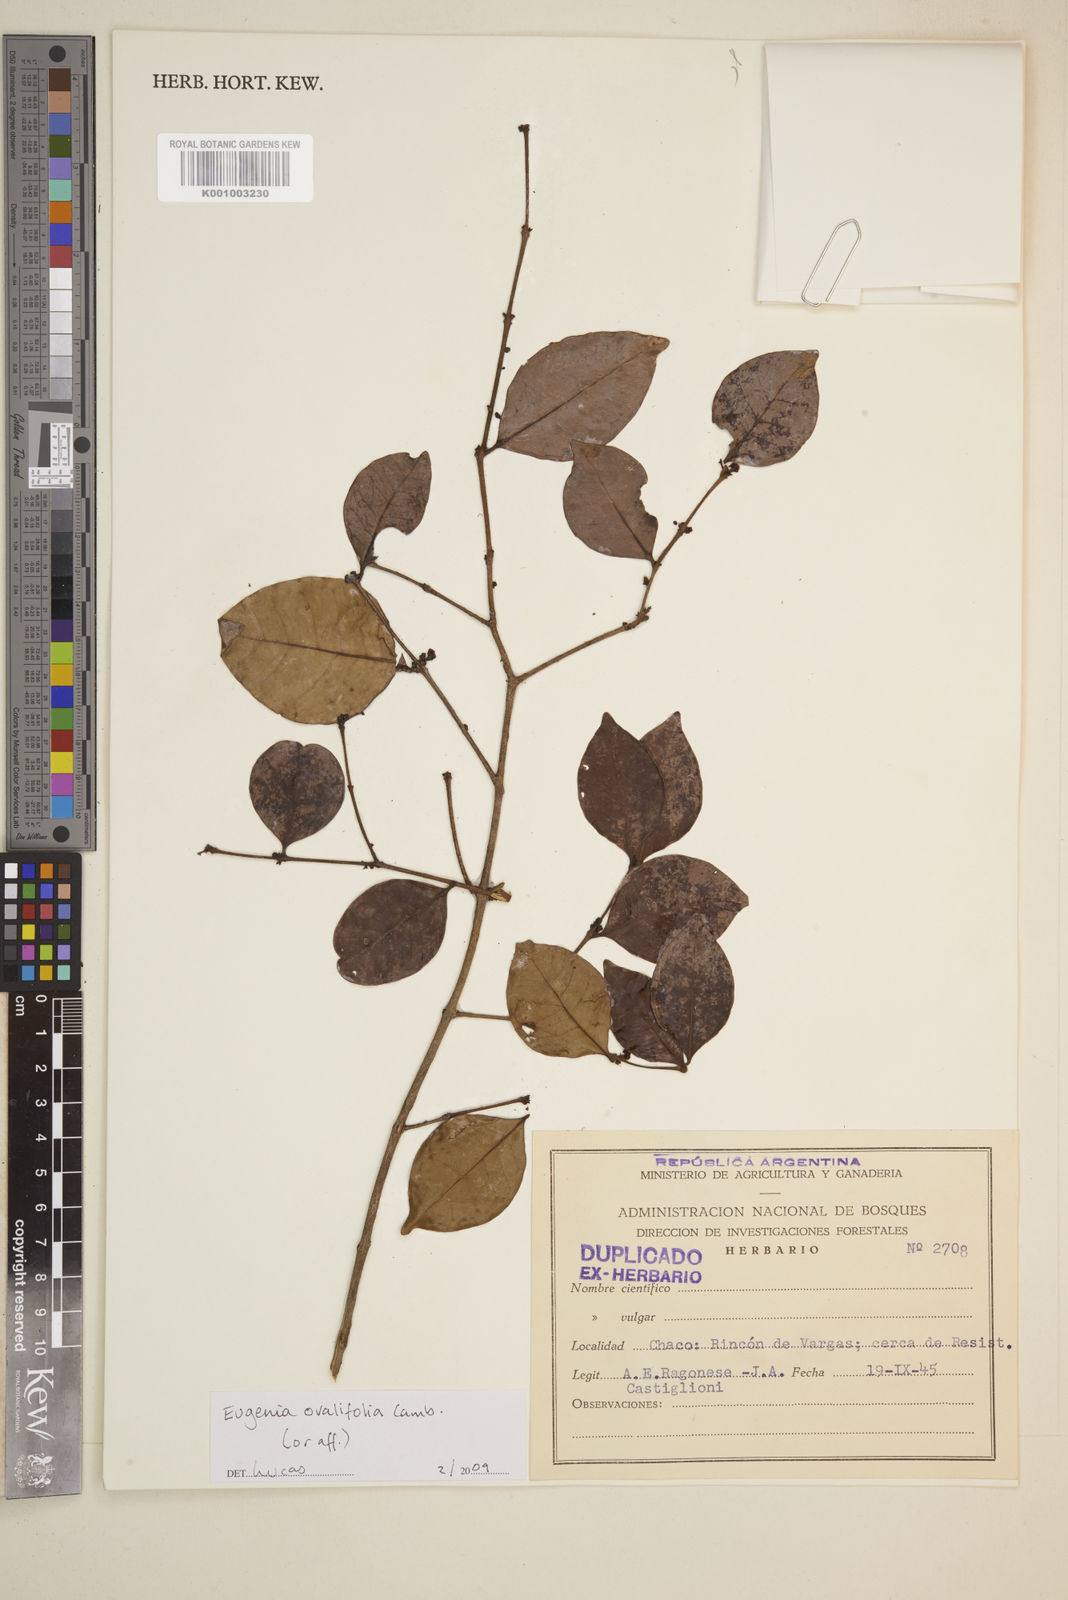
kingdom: Plantae
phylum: Tracheophyta
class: Magnoliopsida
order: Myrtales
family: Myrtaceae
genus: Eugenia
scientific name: Eugenia punicifolia
